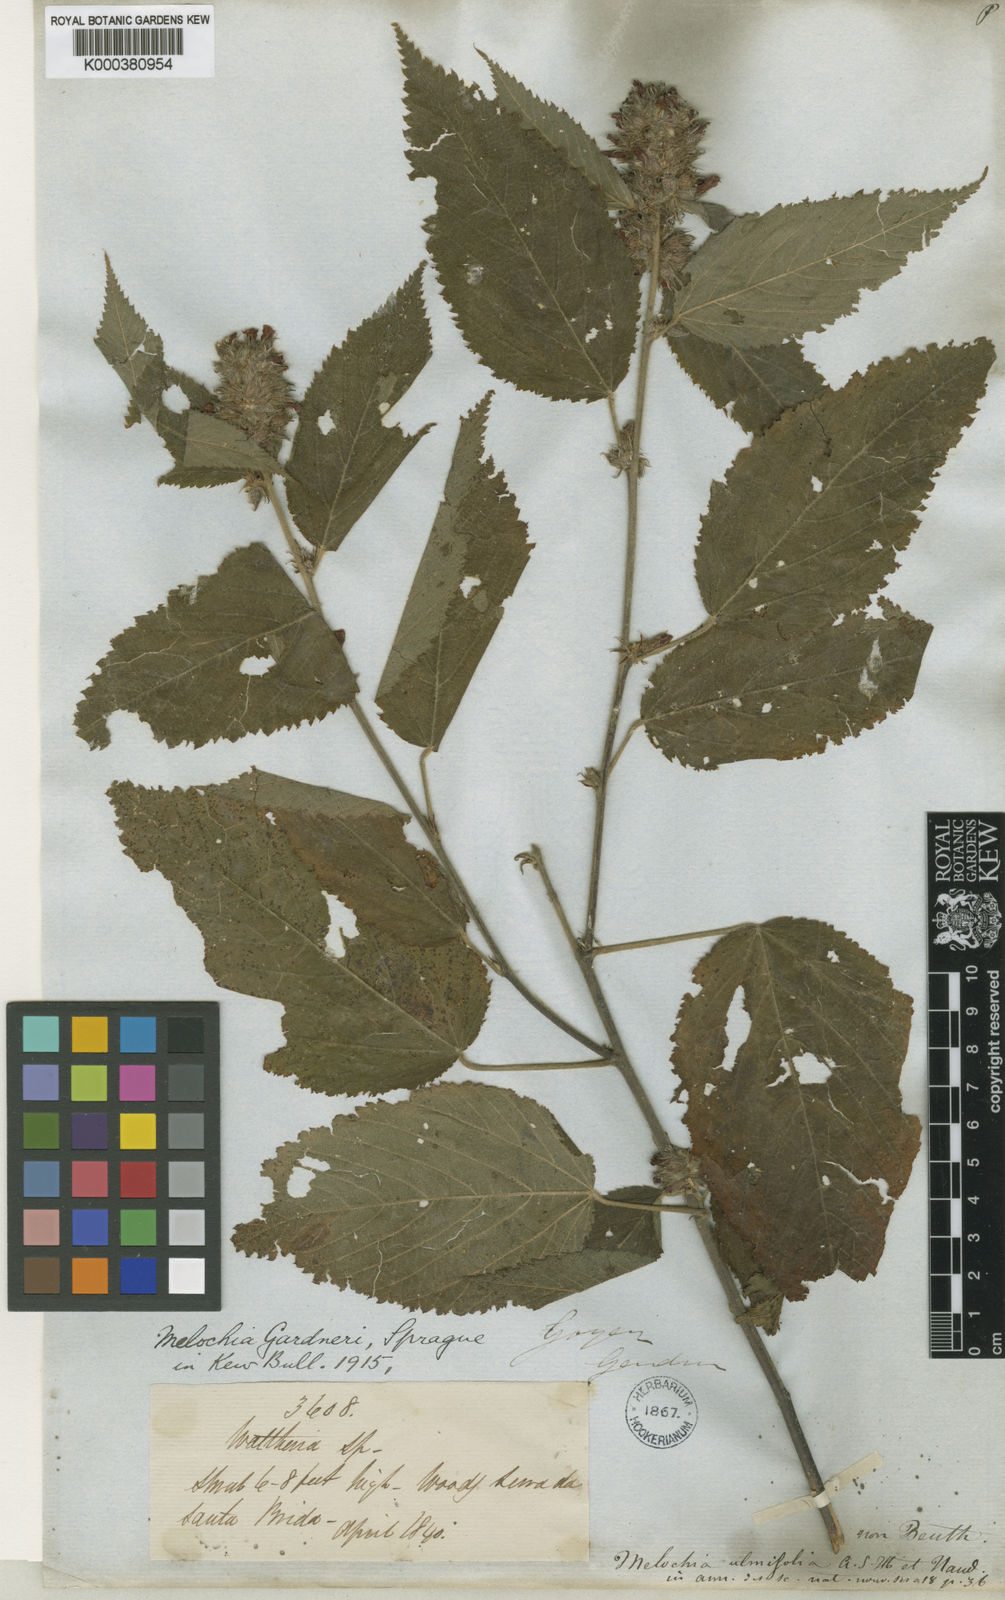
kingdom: Plantae
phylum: Tracheophyta
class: Magnoliopsida
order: Malvales
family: Malvaceae
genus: Melochia
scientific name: Melochia gardneri
